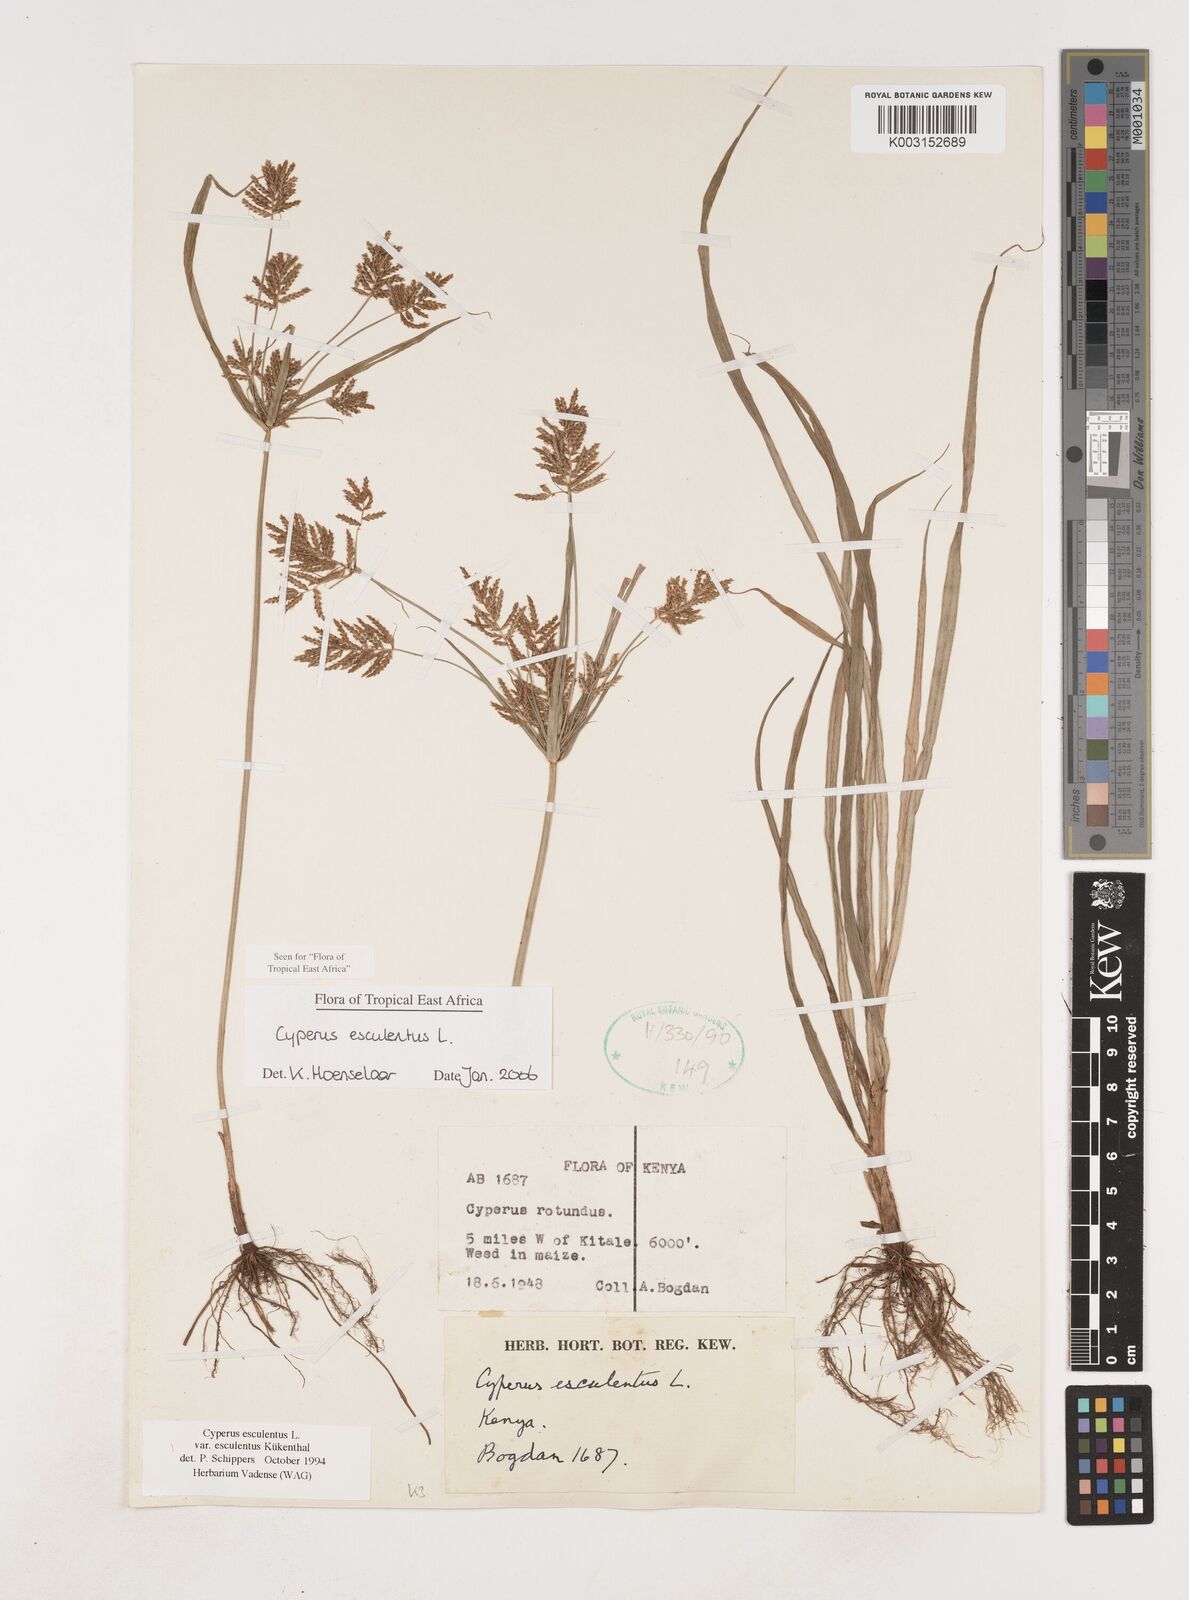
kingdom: Plantae
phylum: Tracheophyta
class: Liliopsida
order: Poales
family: Cyperaceae
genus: Cyperus
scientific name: Cyperus esculentus
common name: Yellow nutsedge
